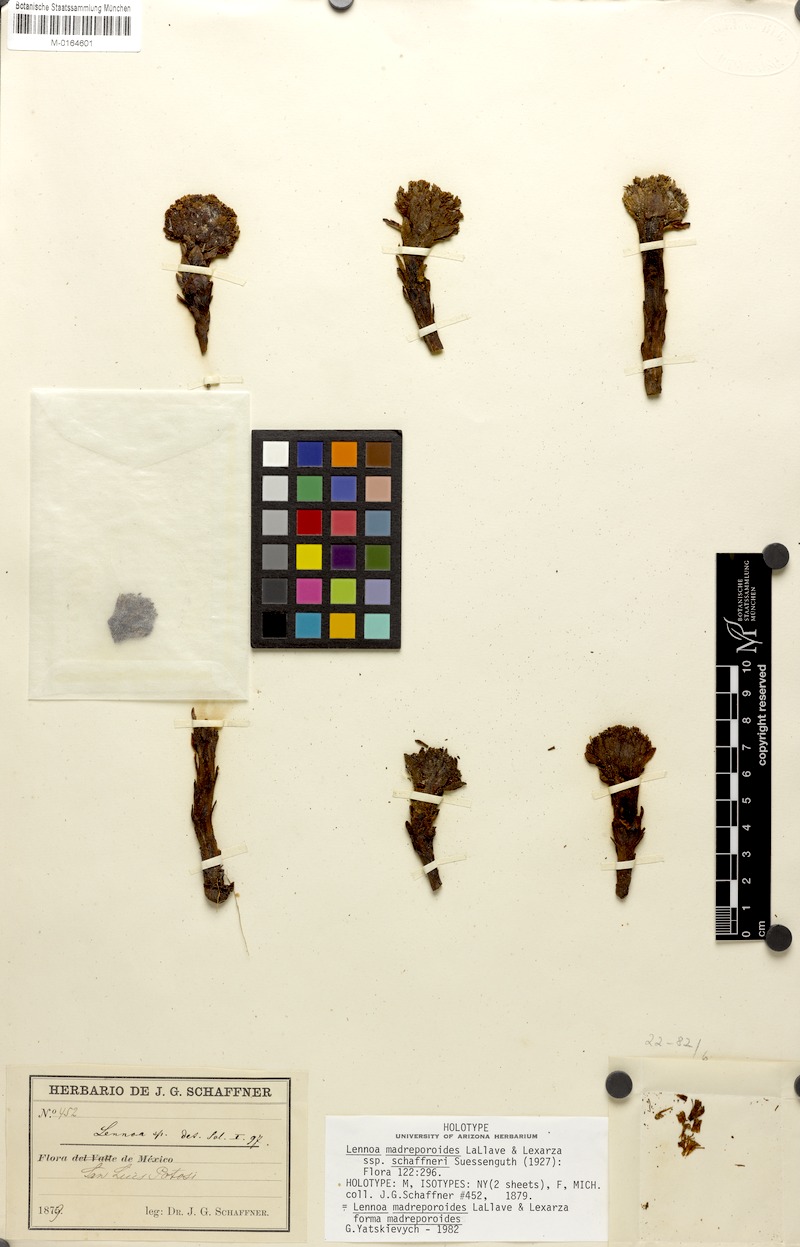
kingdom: Plantae
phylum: Tracheophyta
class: Magnoliopsida
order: Boraginales
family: Lennoaceae
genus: Lennoa
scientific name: Lennoa madreporoides
